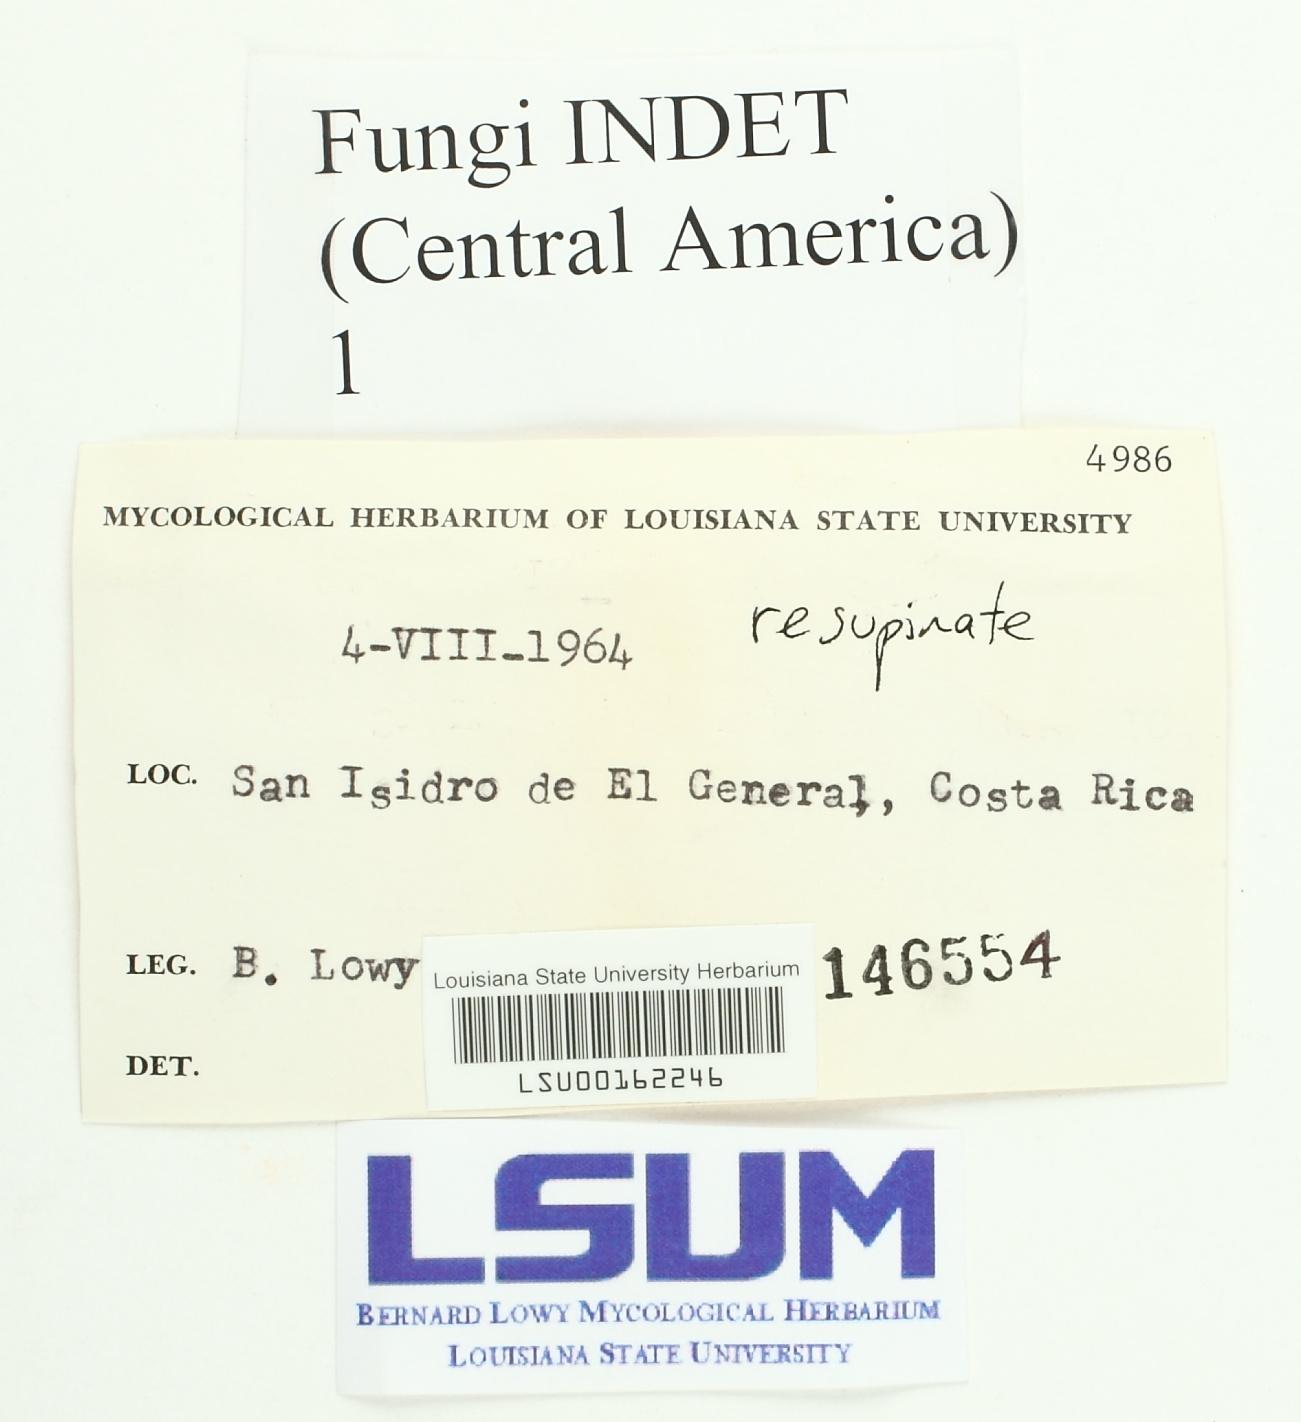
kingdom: Fungi
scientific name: Fungi
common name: Fungi
